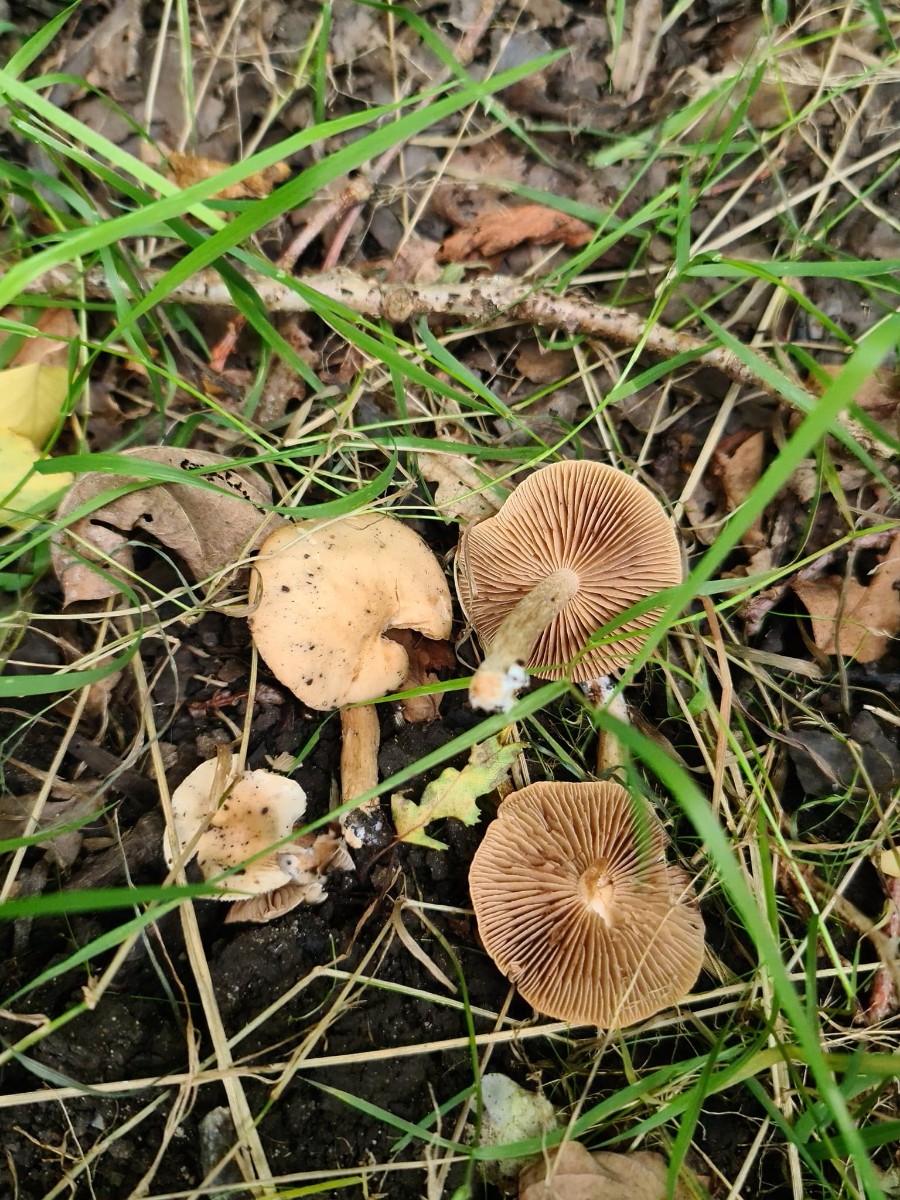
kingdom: Fungi
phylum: Basidiomycota
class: Agaricomycetes
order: Agaricales
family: Hymenogastraceae
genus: Hebeloma
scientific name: Hebeloma sacchariolens
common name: sødtduftende tåreblad
